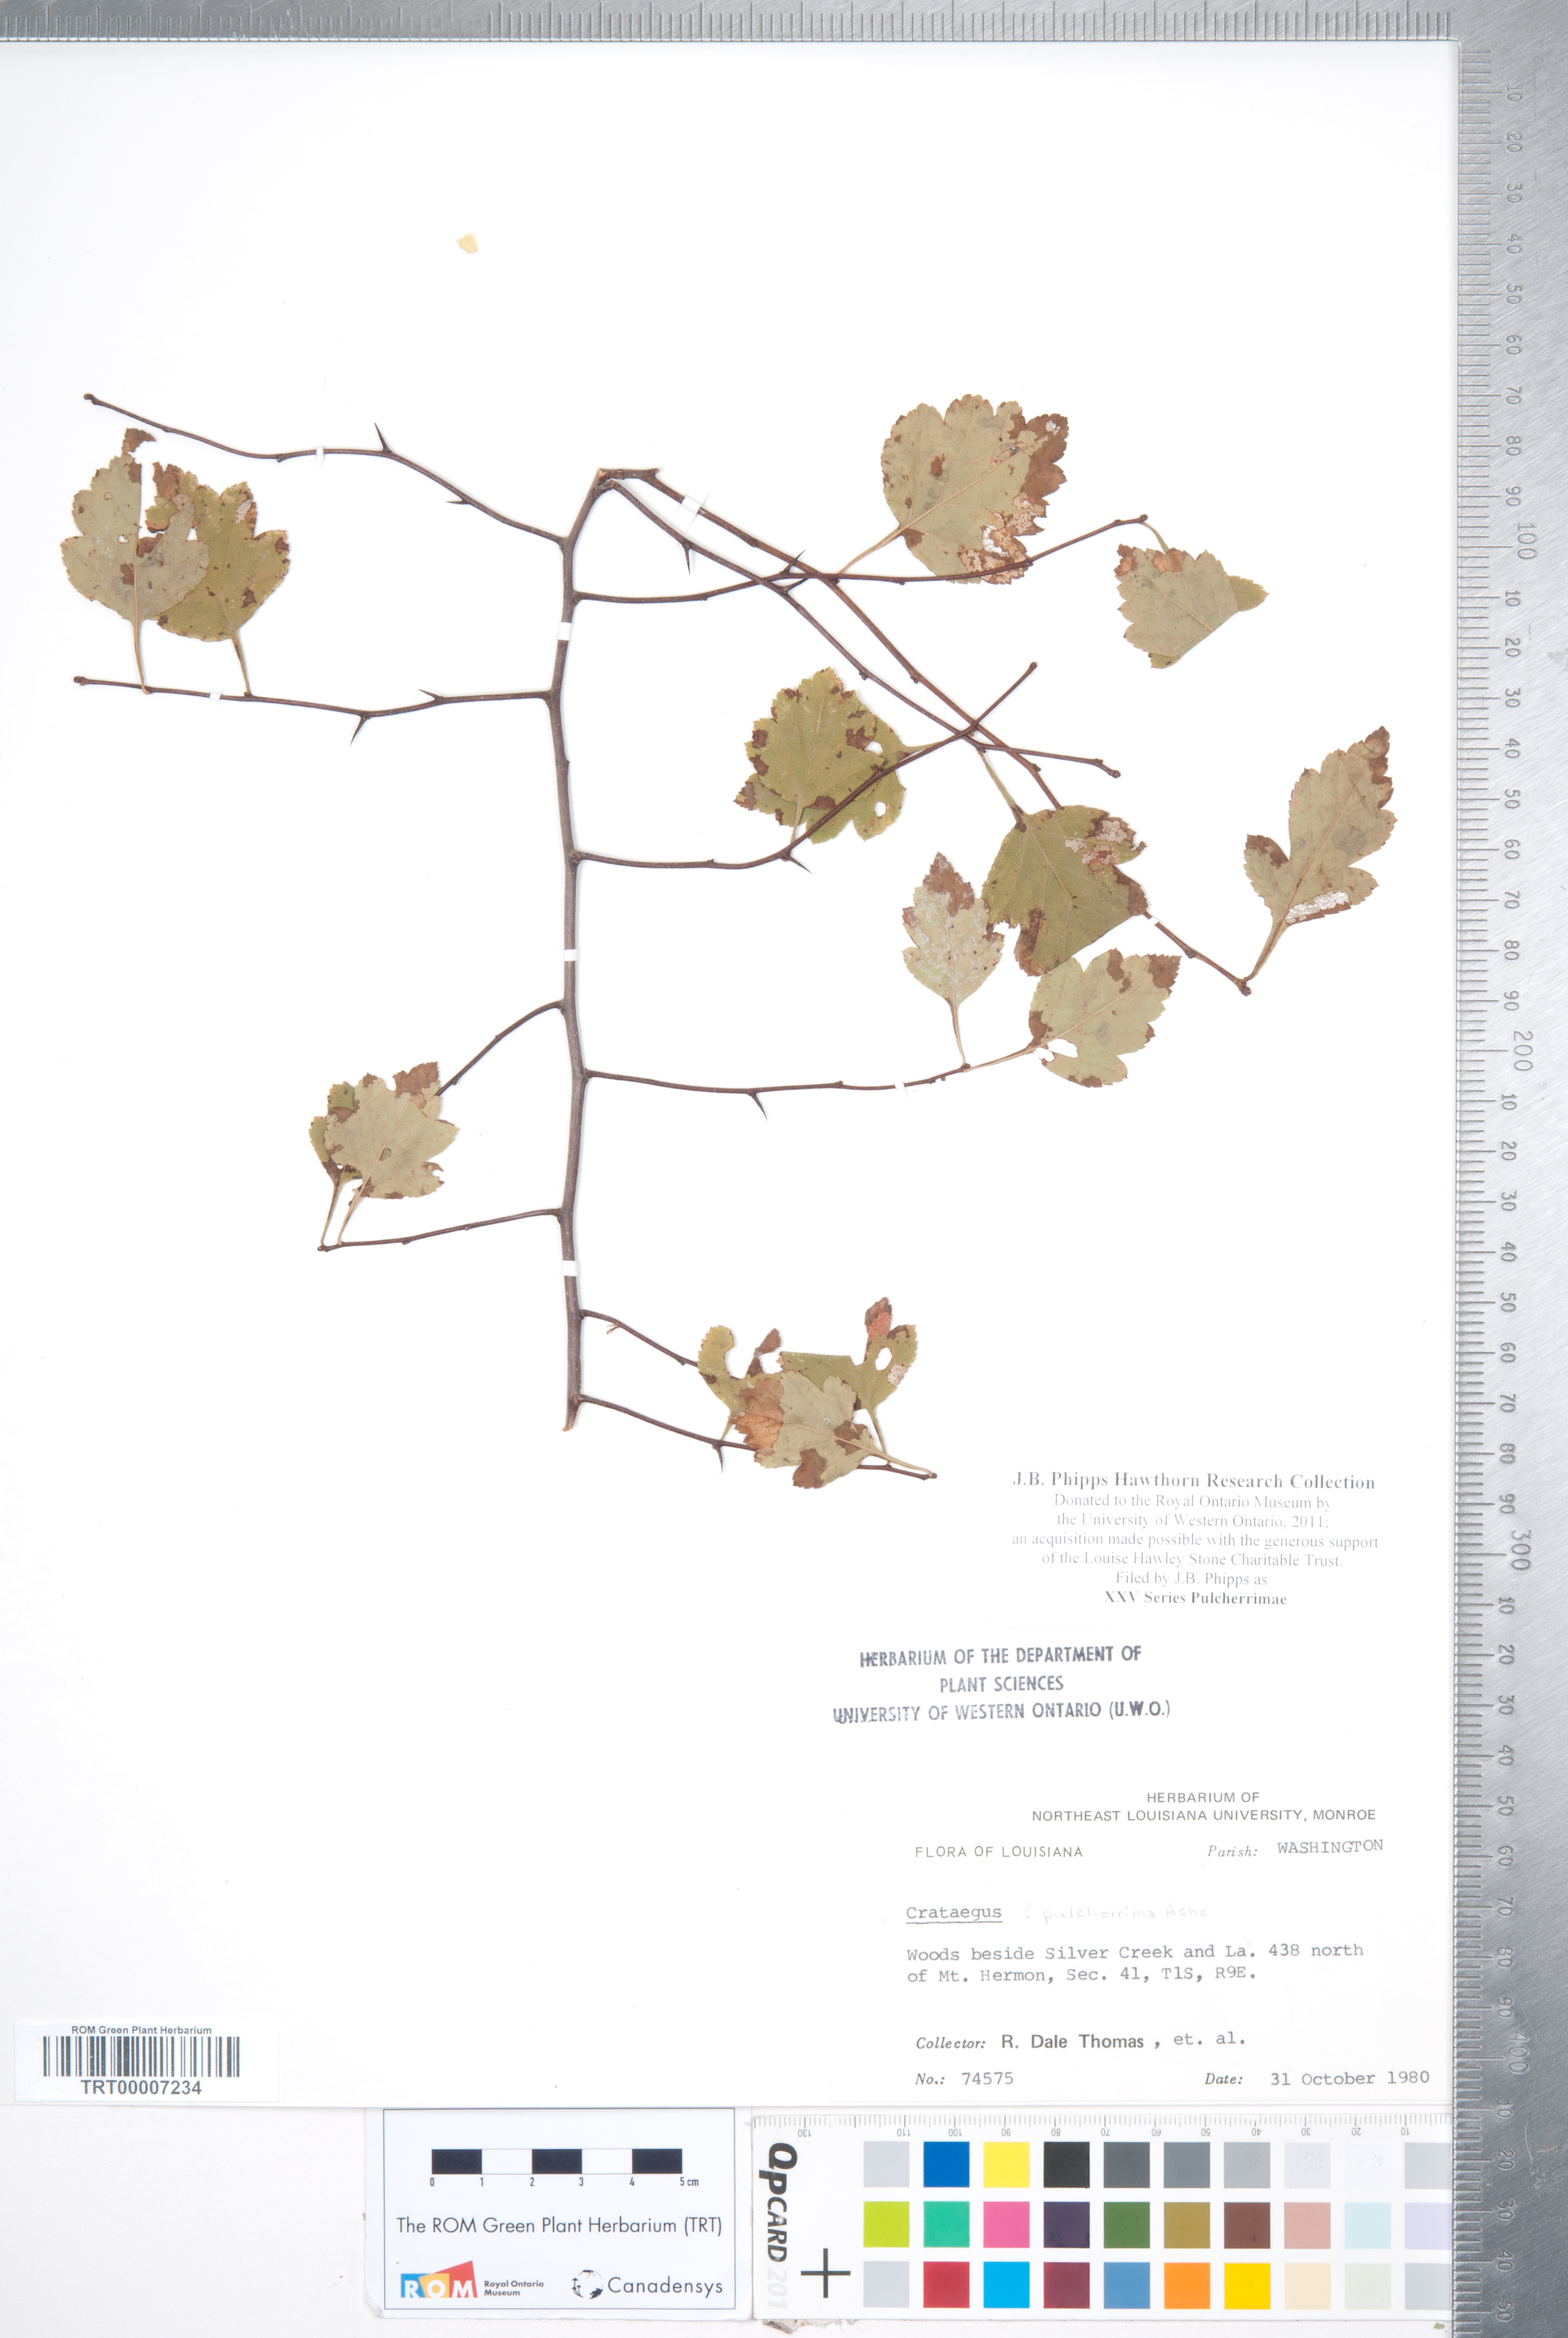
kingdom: Plantae
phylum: Tracheophyta
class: Magnoliopsida
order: Rosales
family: Rosaceae
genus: Crataegus
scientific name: Crataegus
